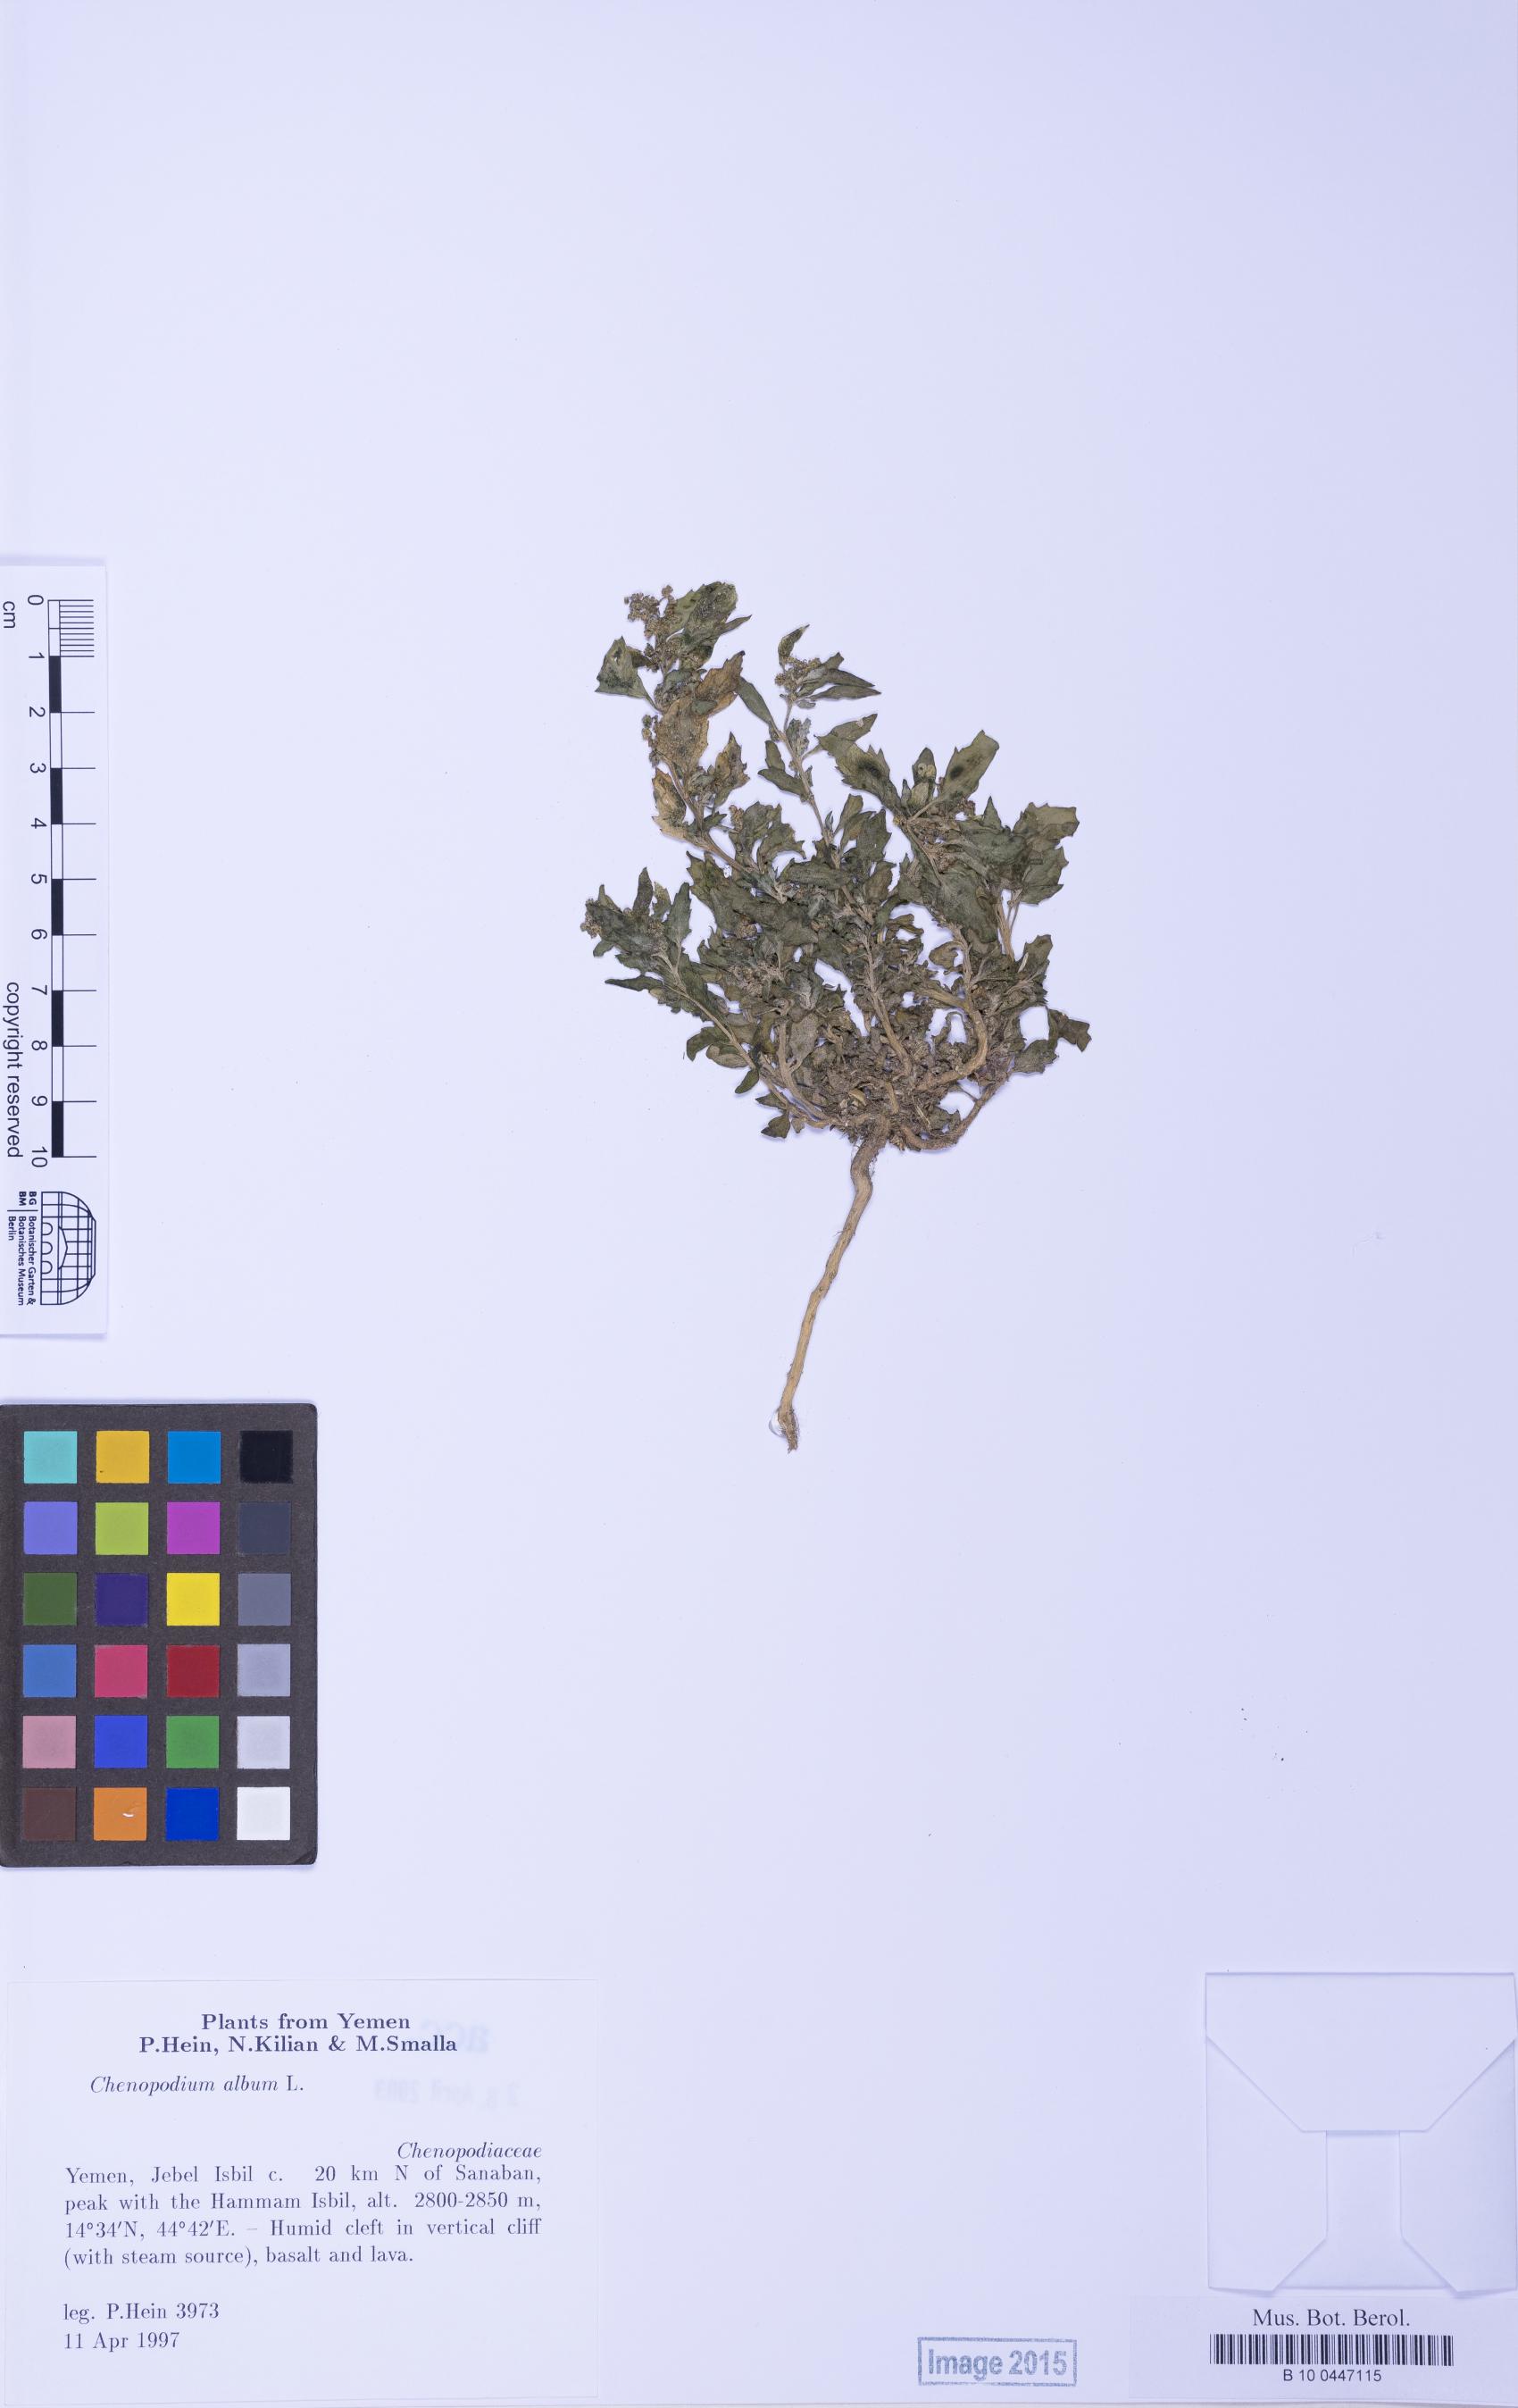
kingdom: Plantae
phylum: Tracheophyta
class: Magnoliopsida
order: Caryophyllales
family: Amaranthaceae
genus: Chenopodiastrum
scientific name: Chenopodiastrum murale
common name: Sowbane
